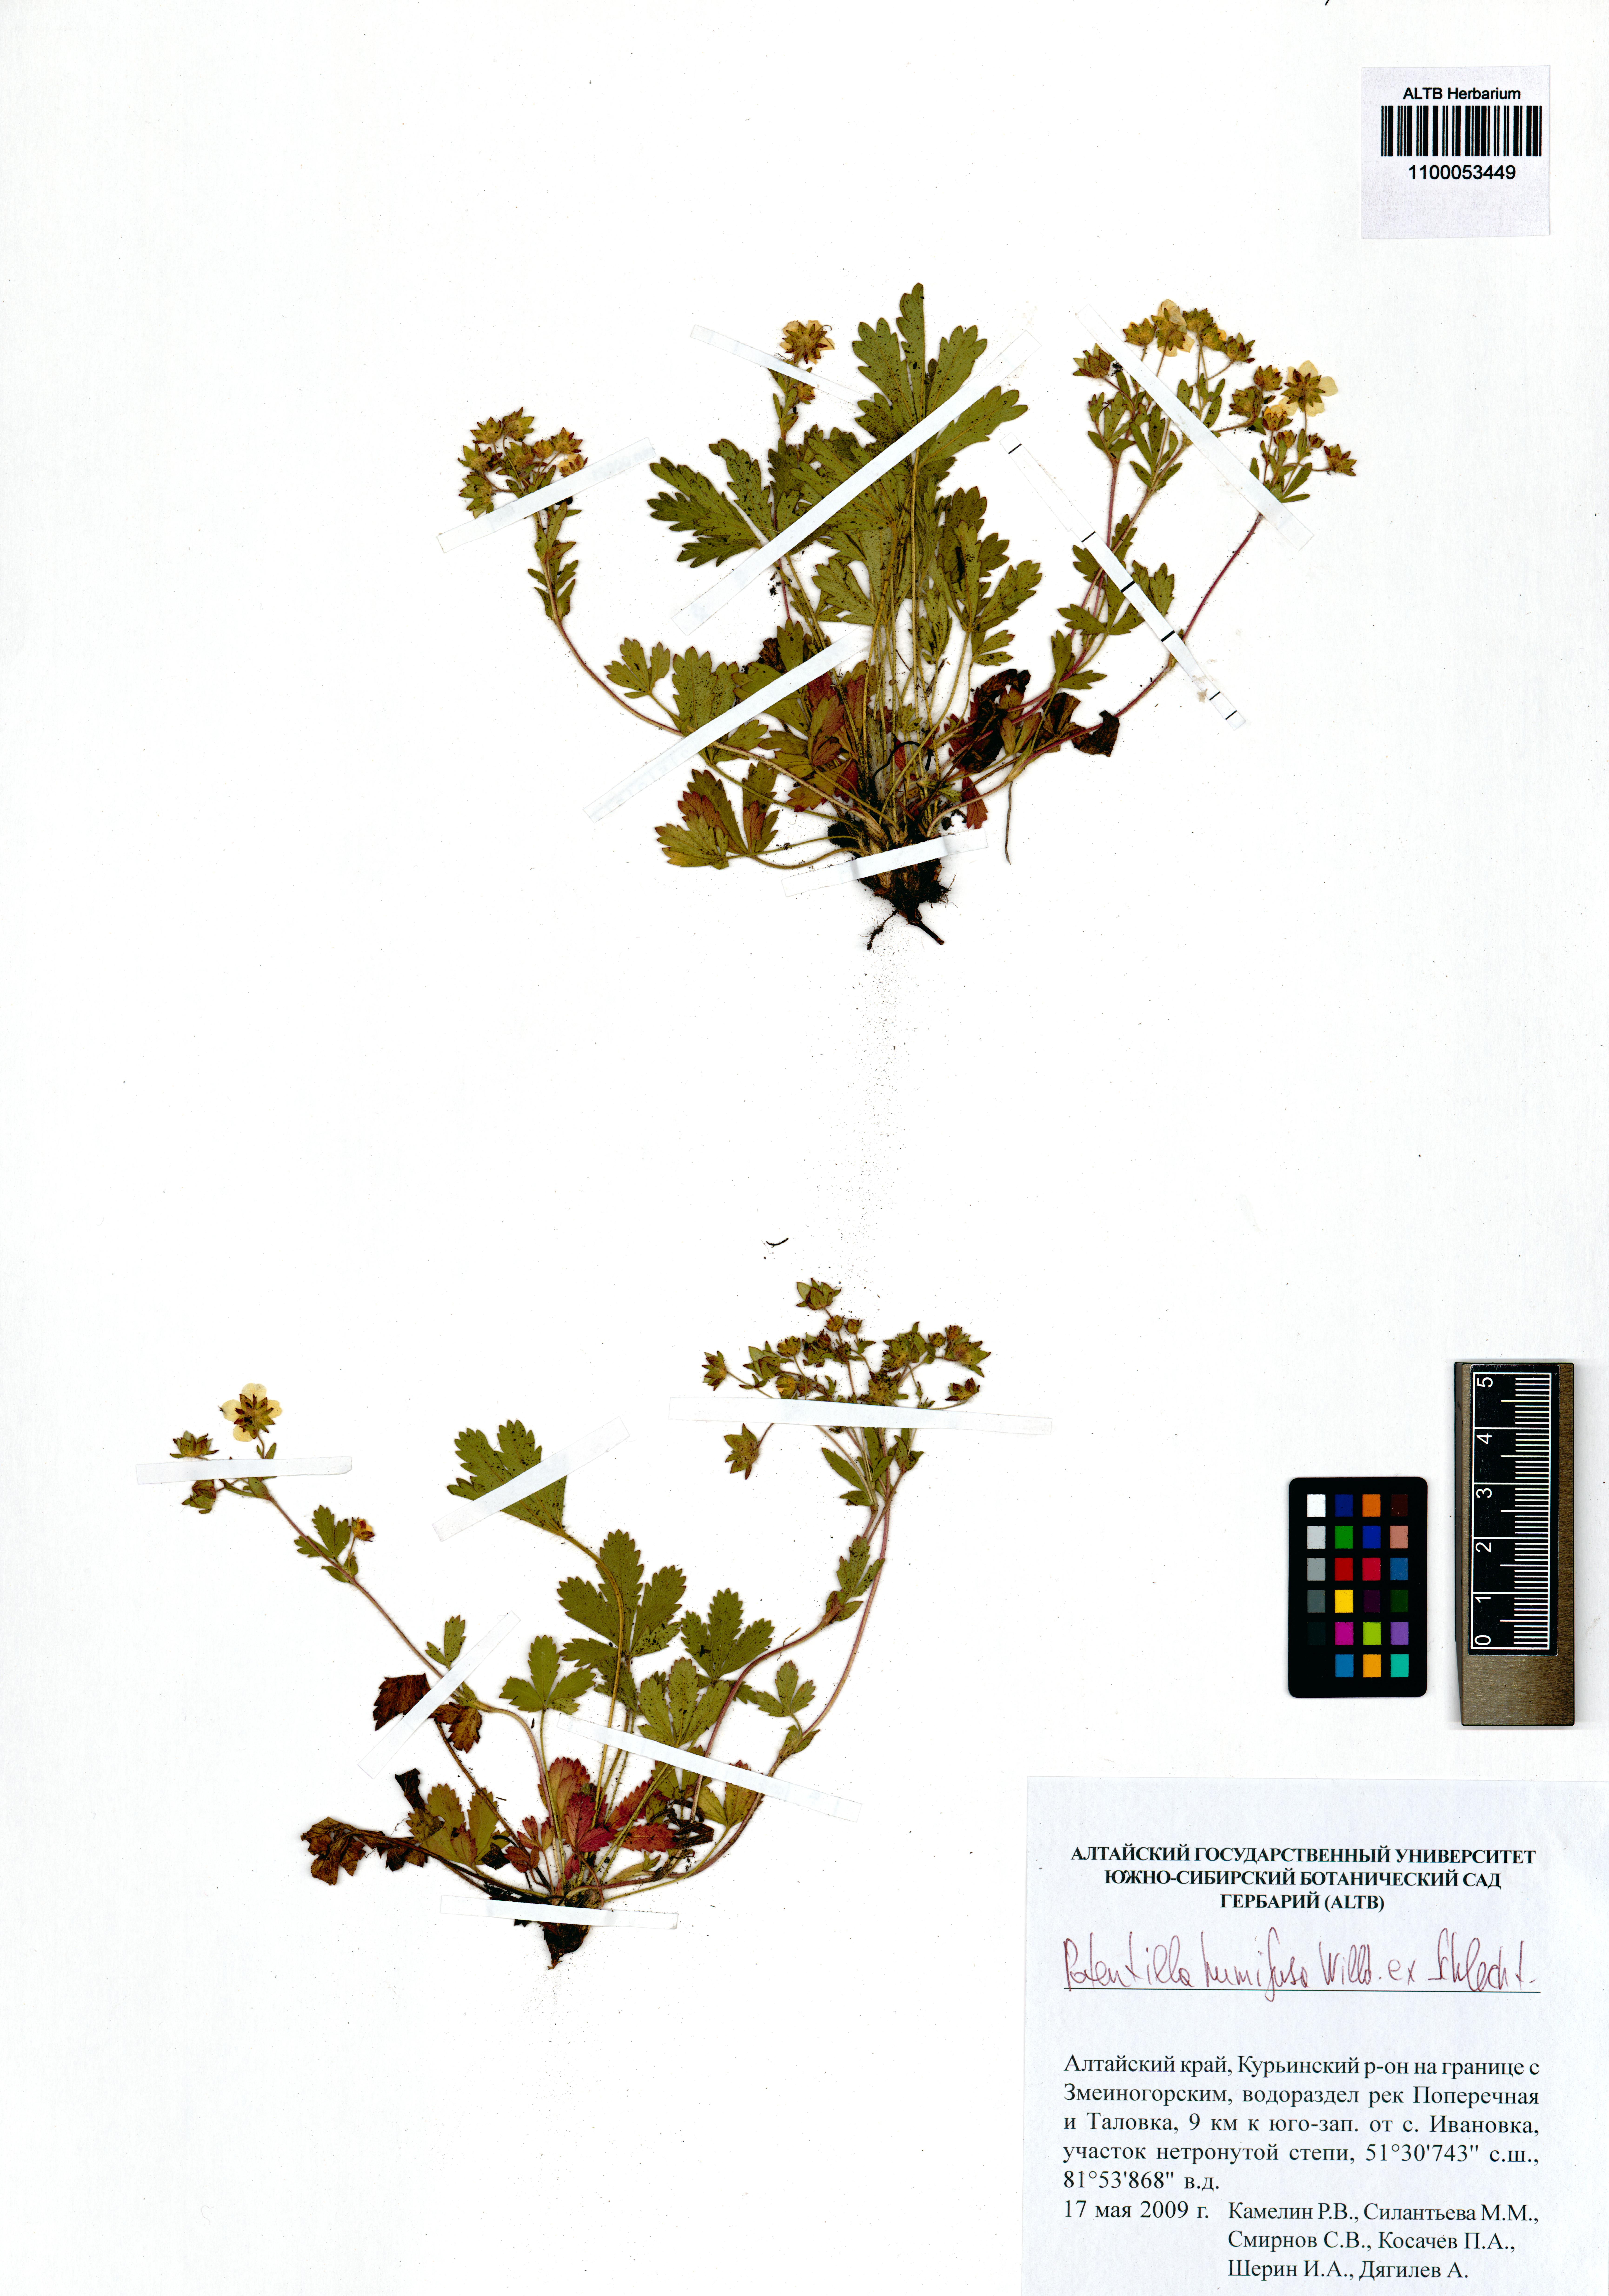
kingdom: Plantae
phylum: Tracheophyta
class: Magnoliopsida
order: Rosales
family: Rosaceae
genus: Potentilla
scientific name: Potentilla humifusa
